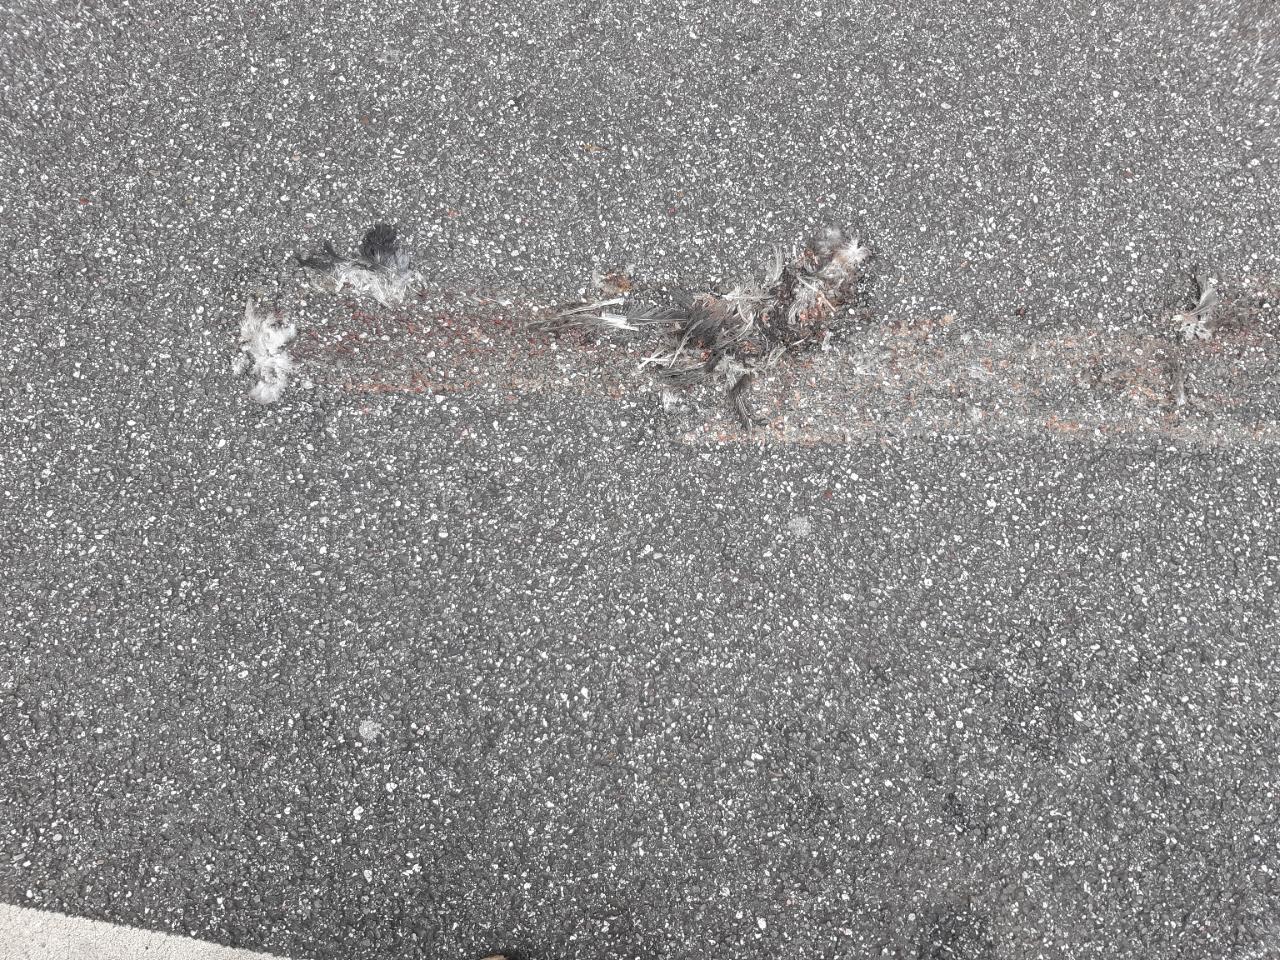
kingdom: Animalia
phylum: Chordata
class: Aves
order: Columbiformes
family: Columbidae
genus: Columba
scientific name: Columba livia
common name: Rock pigeon
